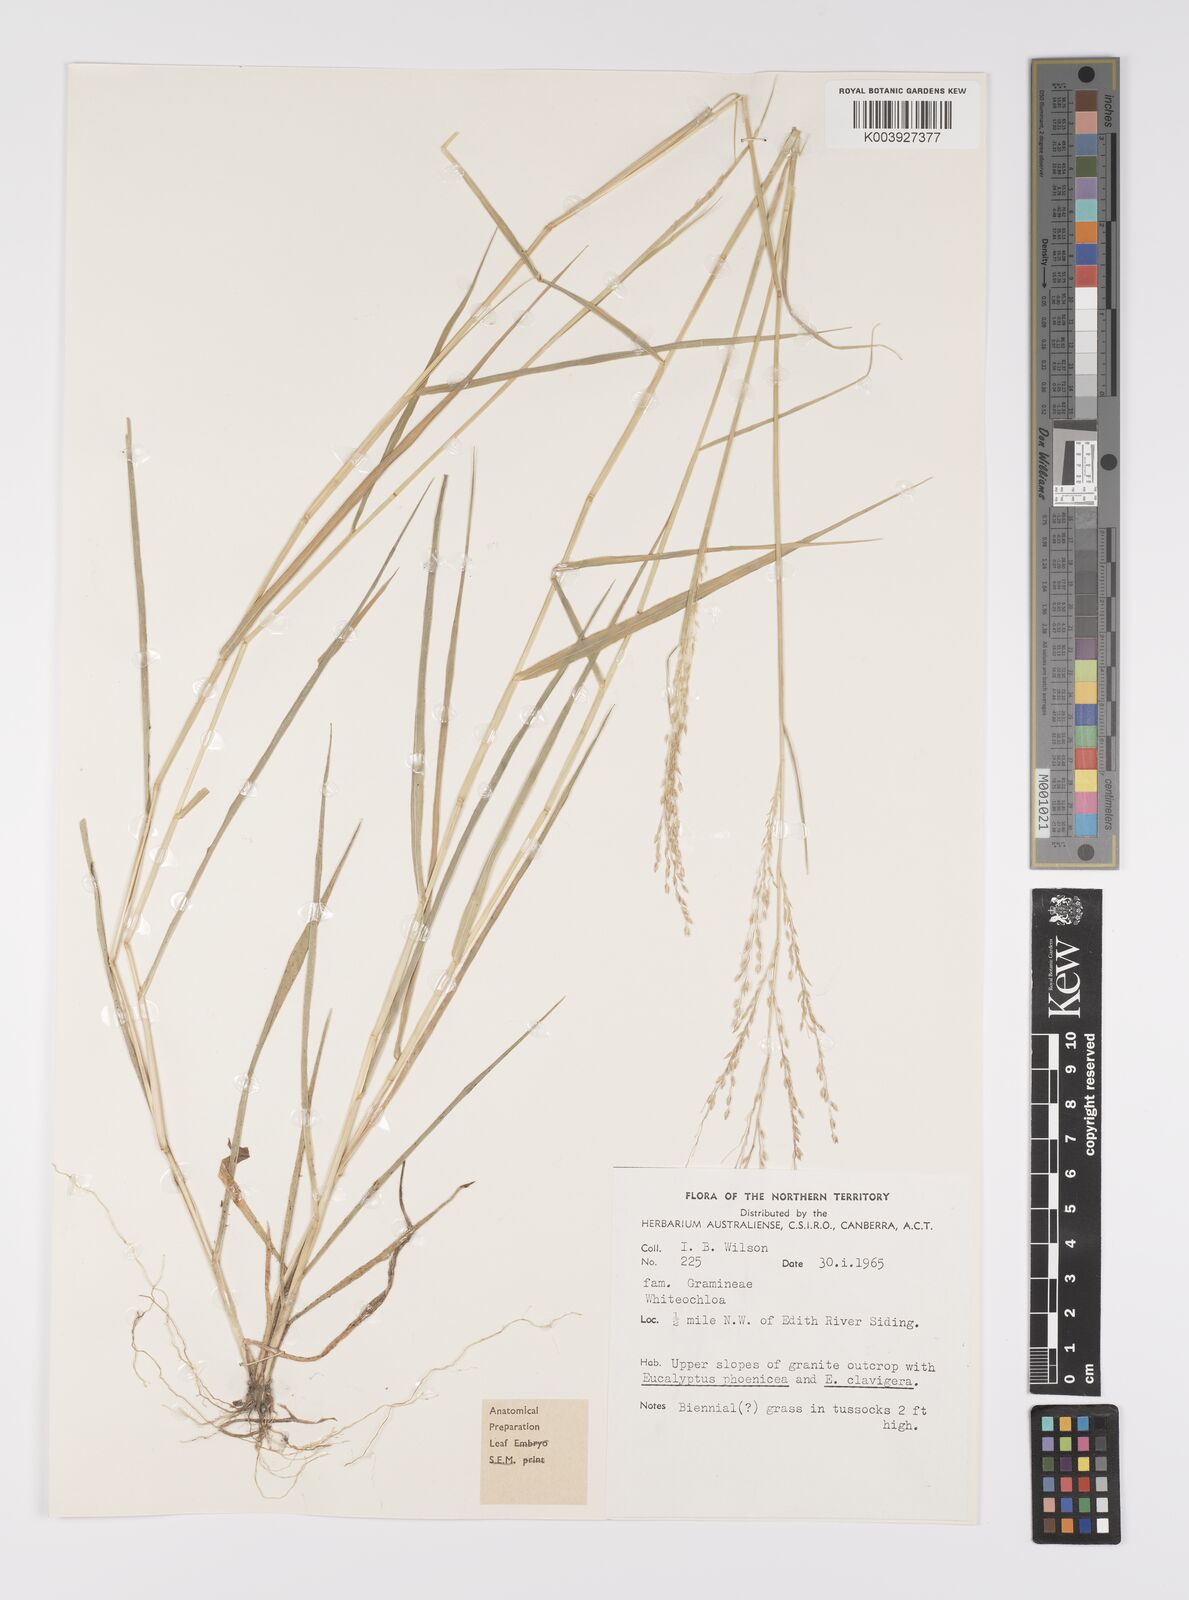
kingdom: Plantae
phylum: Tracheophyta
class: Liliopsida
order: Poales
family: Poaceae
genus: Whiteochloa
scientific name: Whiteochloa semitonsa
